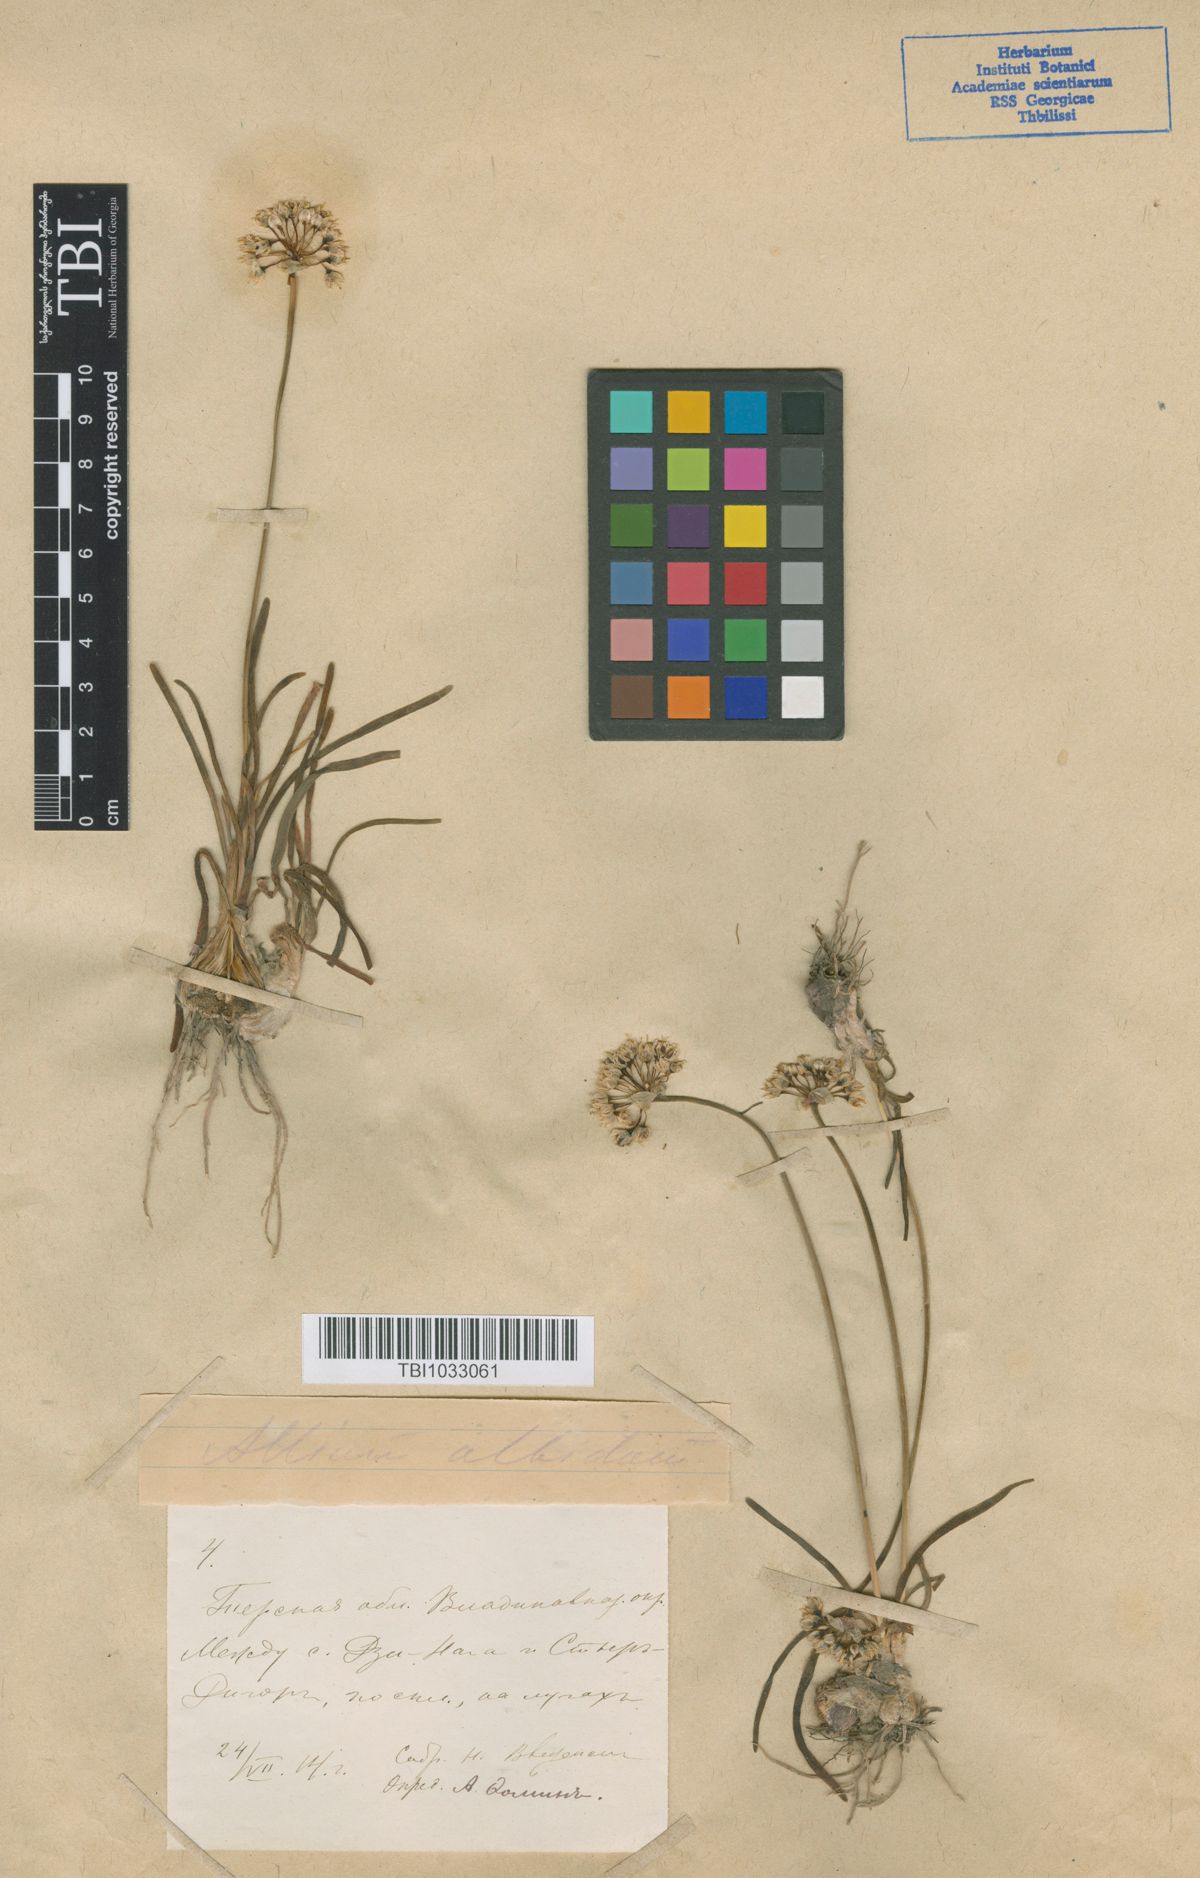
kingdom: Plantae
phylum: Tracheophyta
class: Liliopsida
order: Asparagales
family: Amaryllidaceae
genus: Allium
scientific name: Allium denudatum
